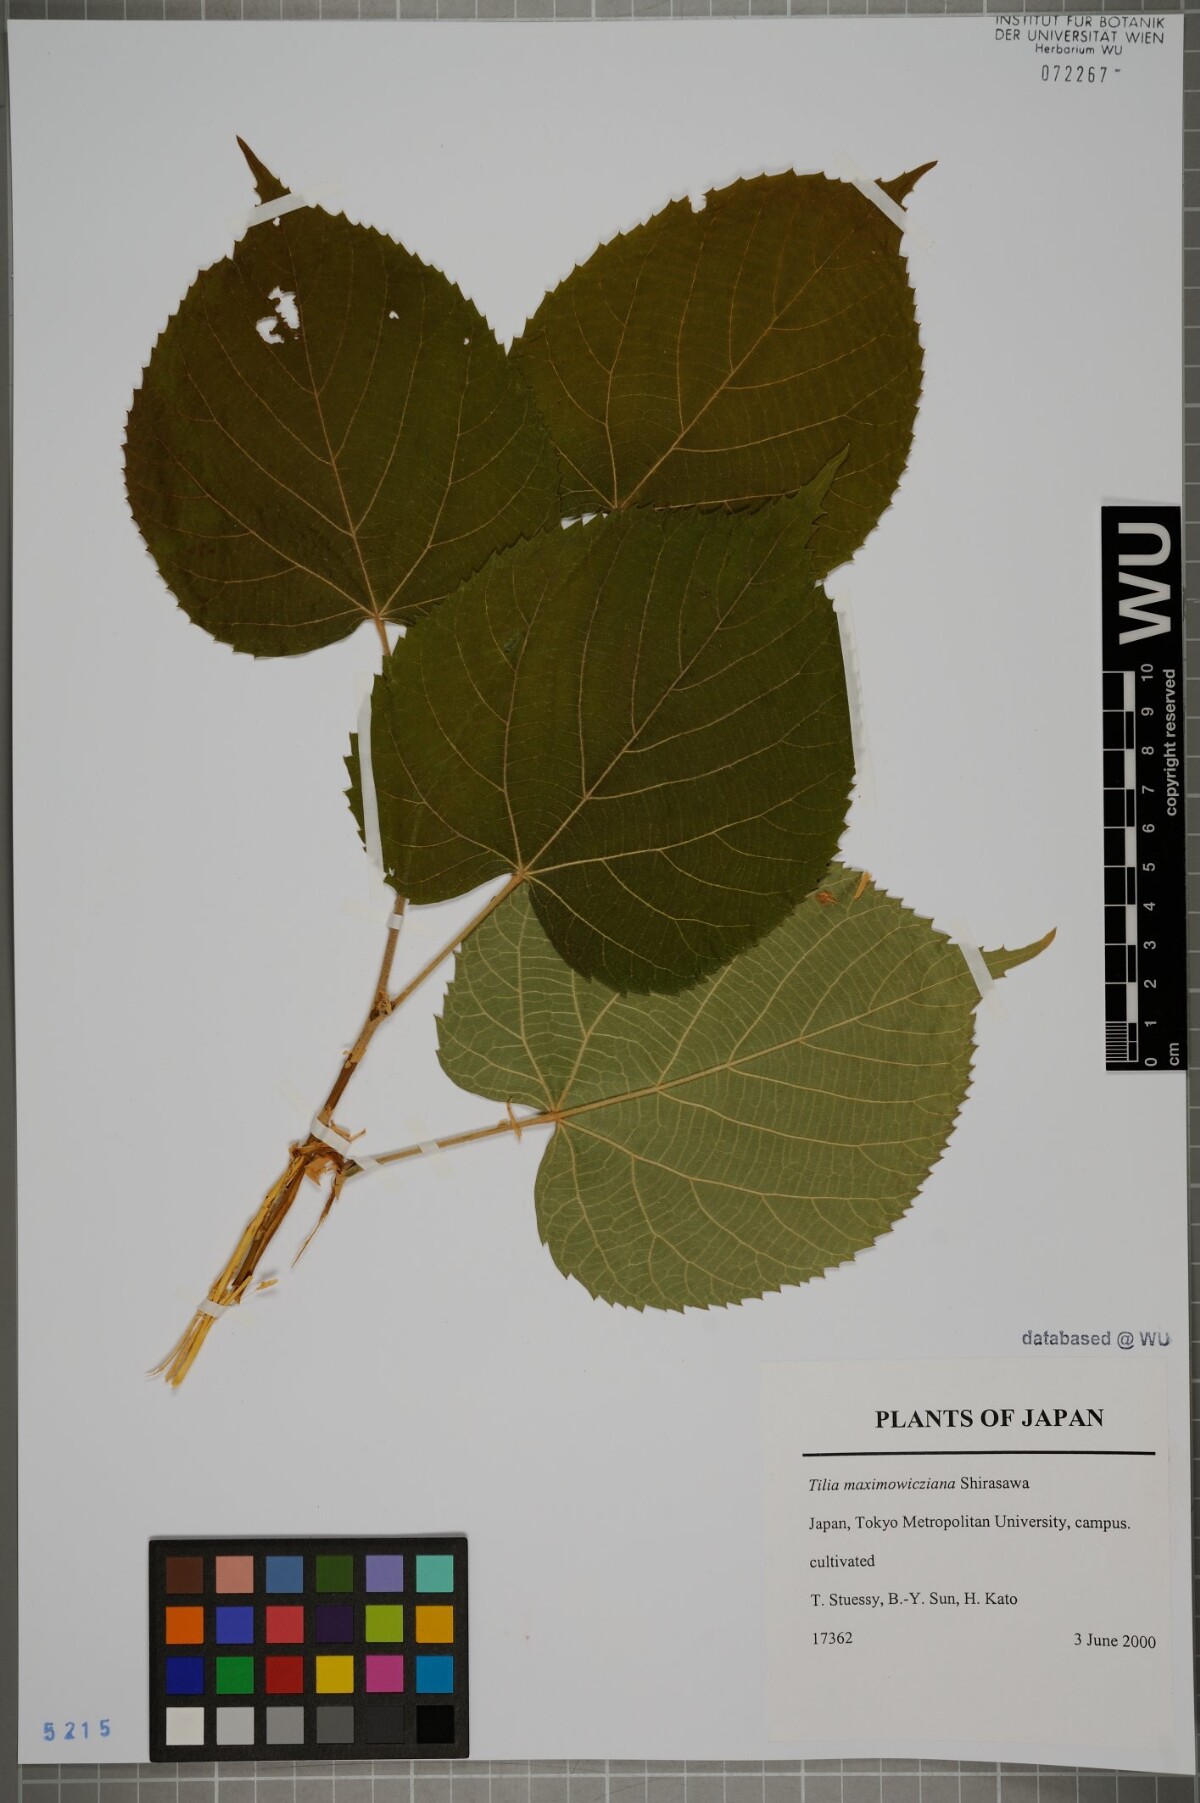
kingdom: Plantae
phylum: Tracheophyta
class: Magnoliopsida
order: Malvales
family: Malvaceae
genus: Tilia
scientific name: Tilia maximowicziana
